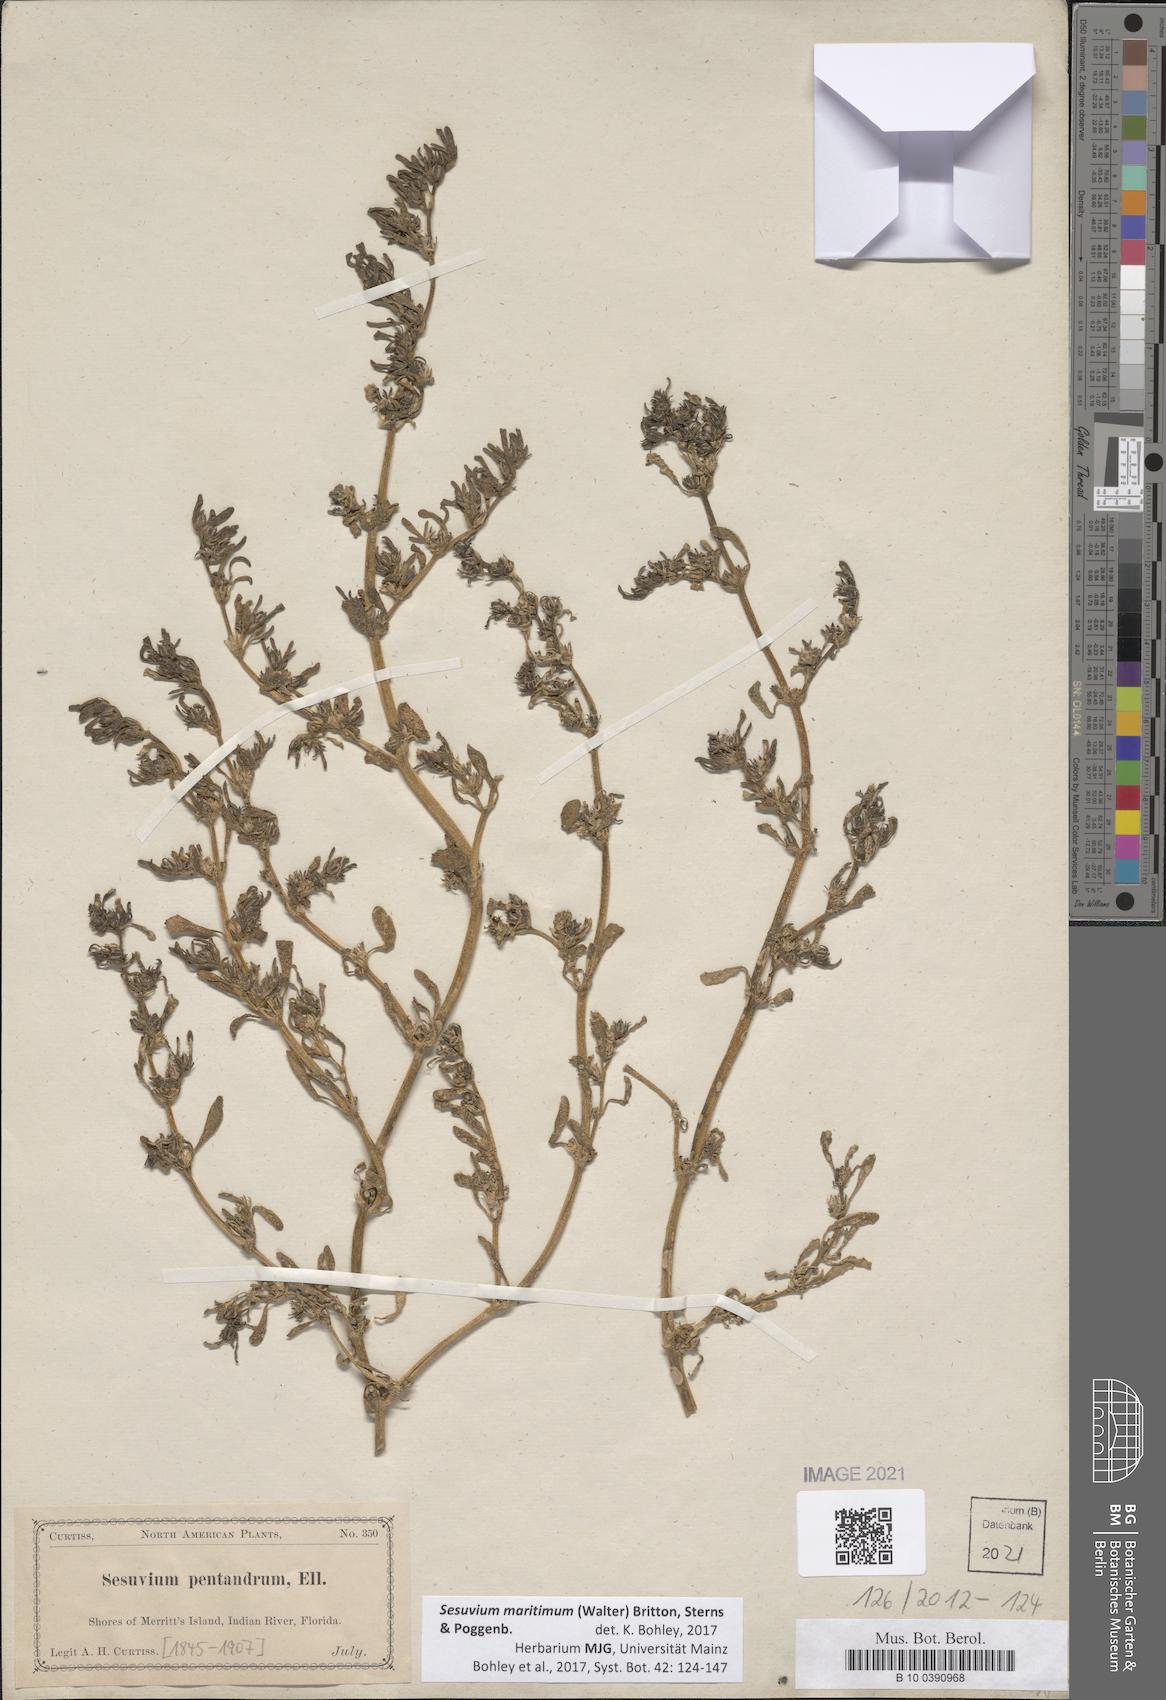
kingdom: Plantae
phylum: Tracheophyta
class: Magnoliopsida
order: Caryophyllales
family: Aizoaceae
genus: Sesuvium
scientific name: Sesuvium maritimum
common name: Slender sea-purslane
